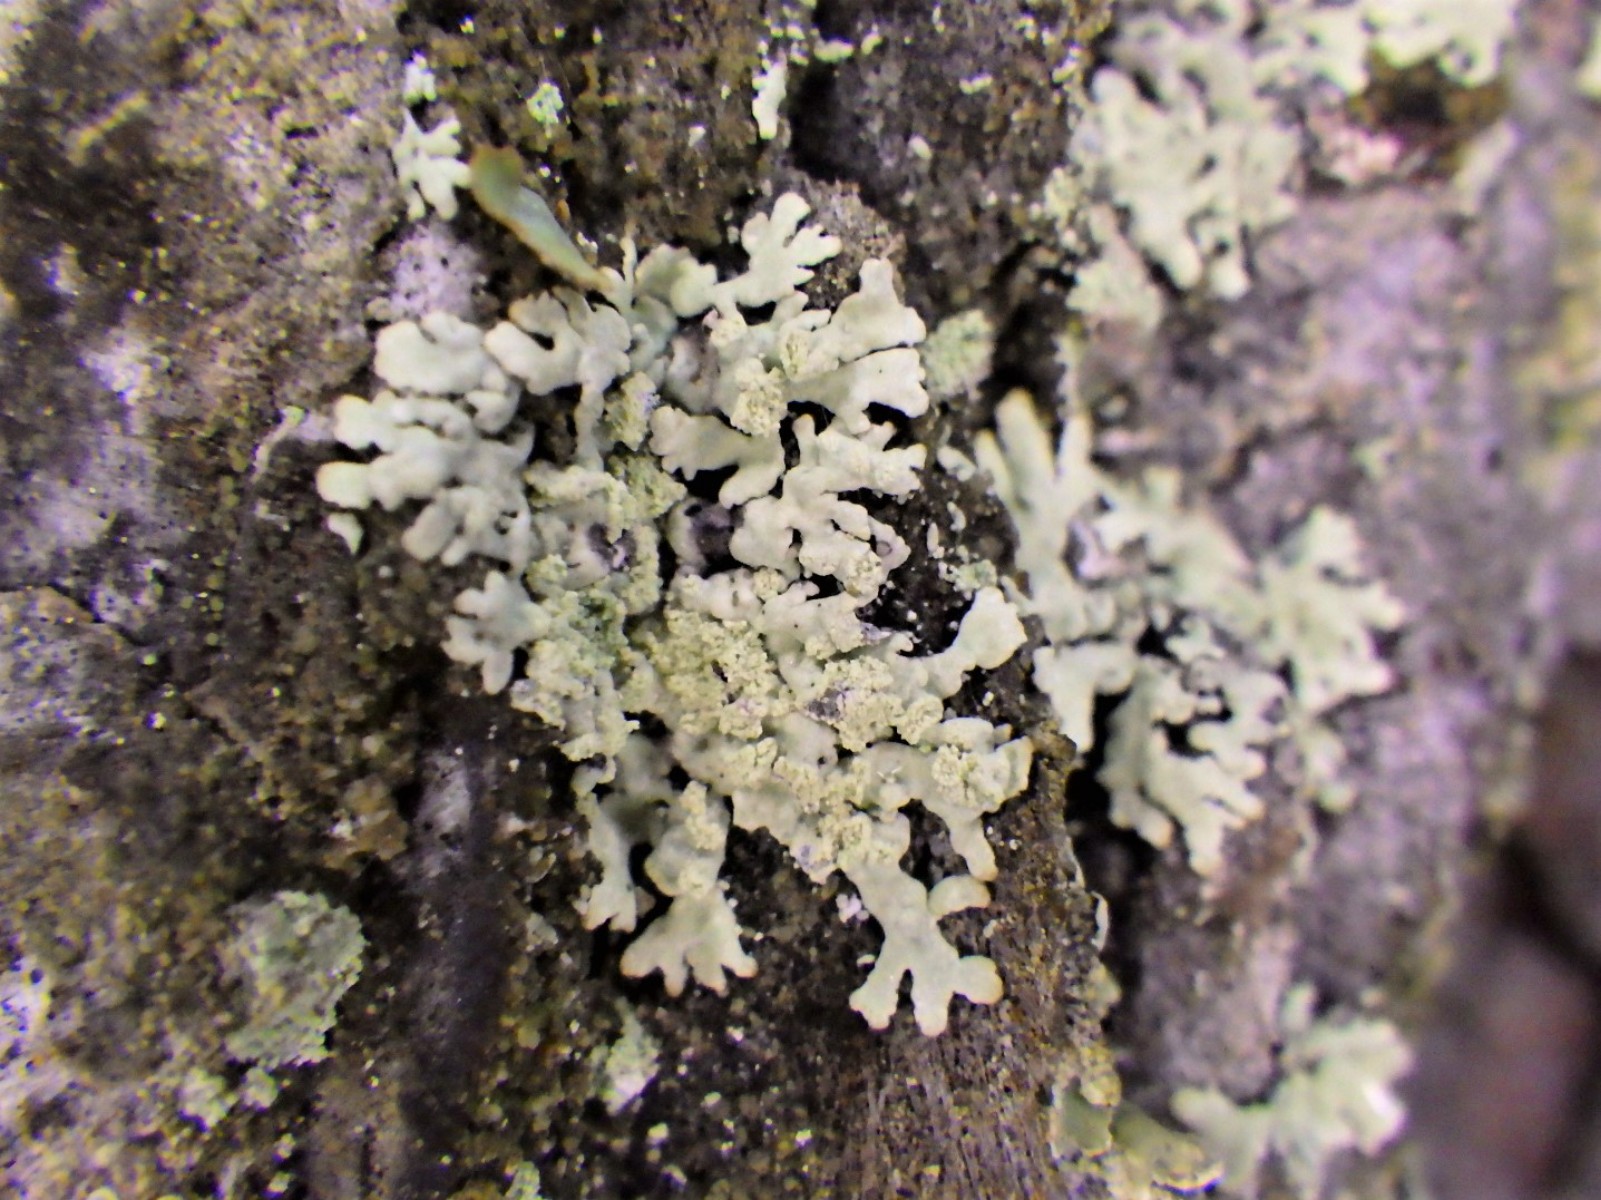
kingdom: Fungi
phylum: Ascomycota
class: Lecanoromycetes
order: Lecanorales
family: Parmeliaceae
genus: Parmeliopsis
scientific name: Parmeliopsis ambigua
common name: gul stolpelav
